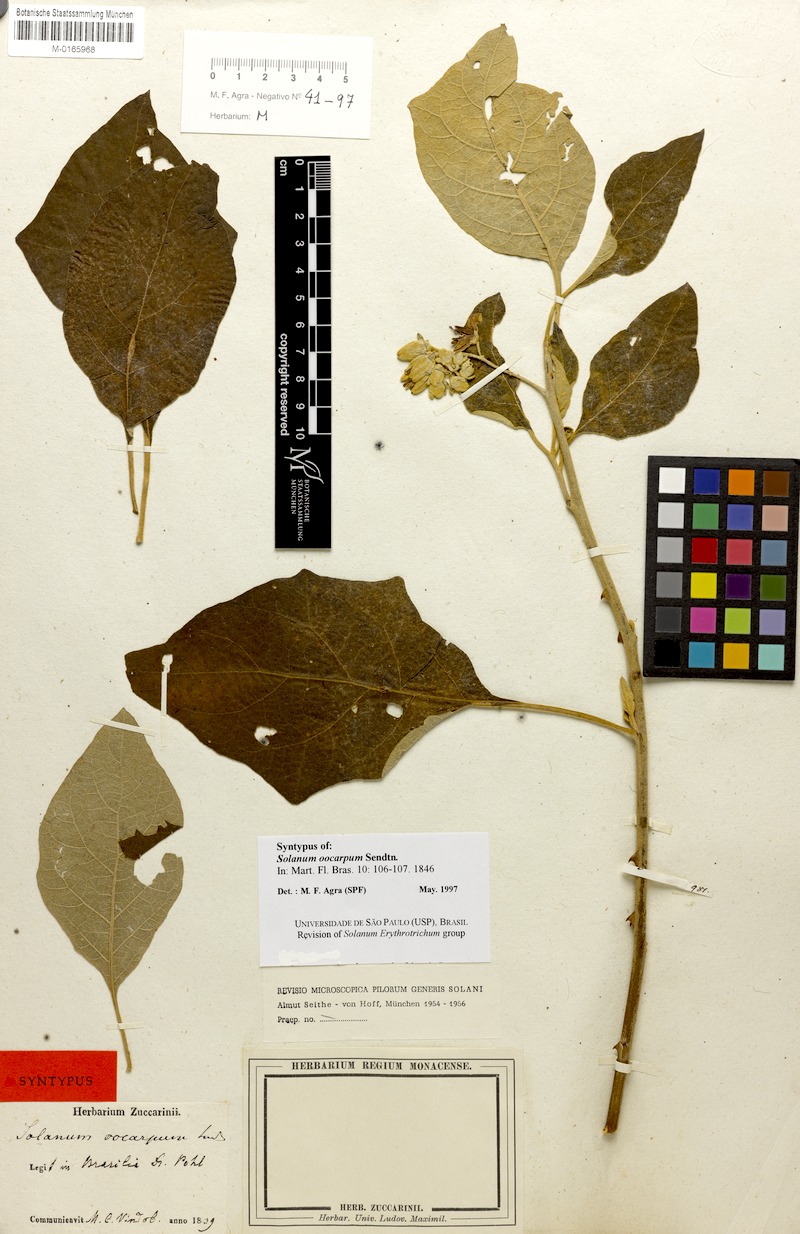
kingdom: Plantae
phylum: Tracheophyta
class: Magnoliopsida
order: Solanales
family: Solanaceae
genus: Solanum
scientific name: Solanum oocarpum
